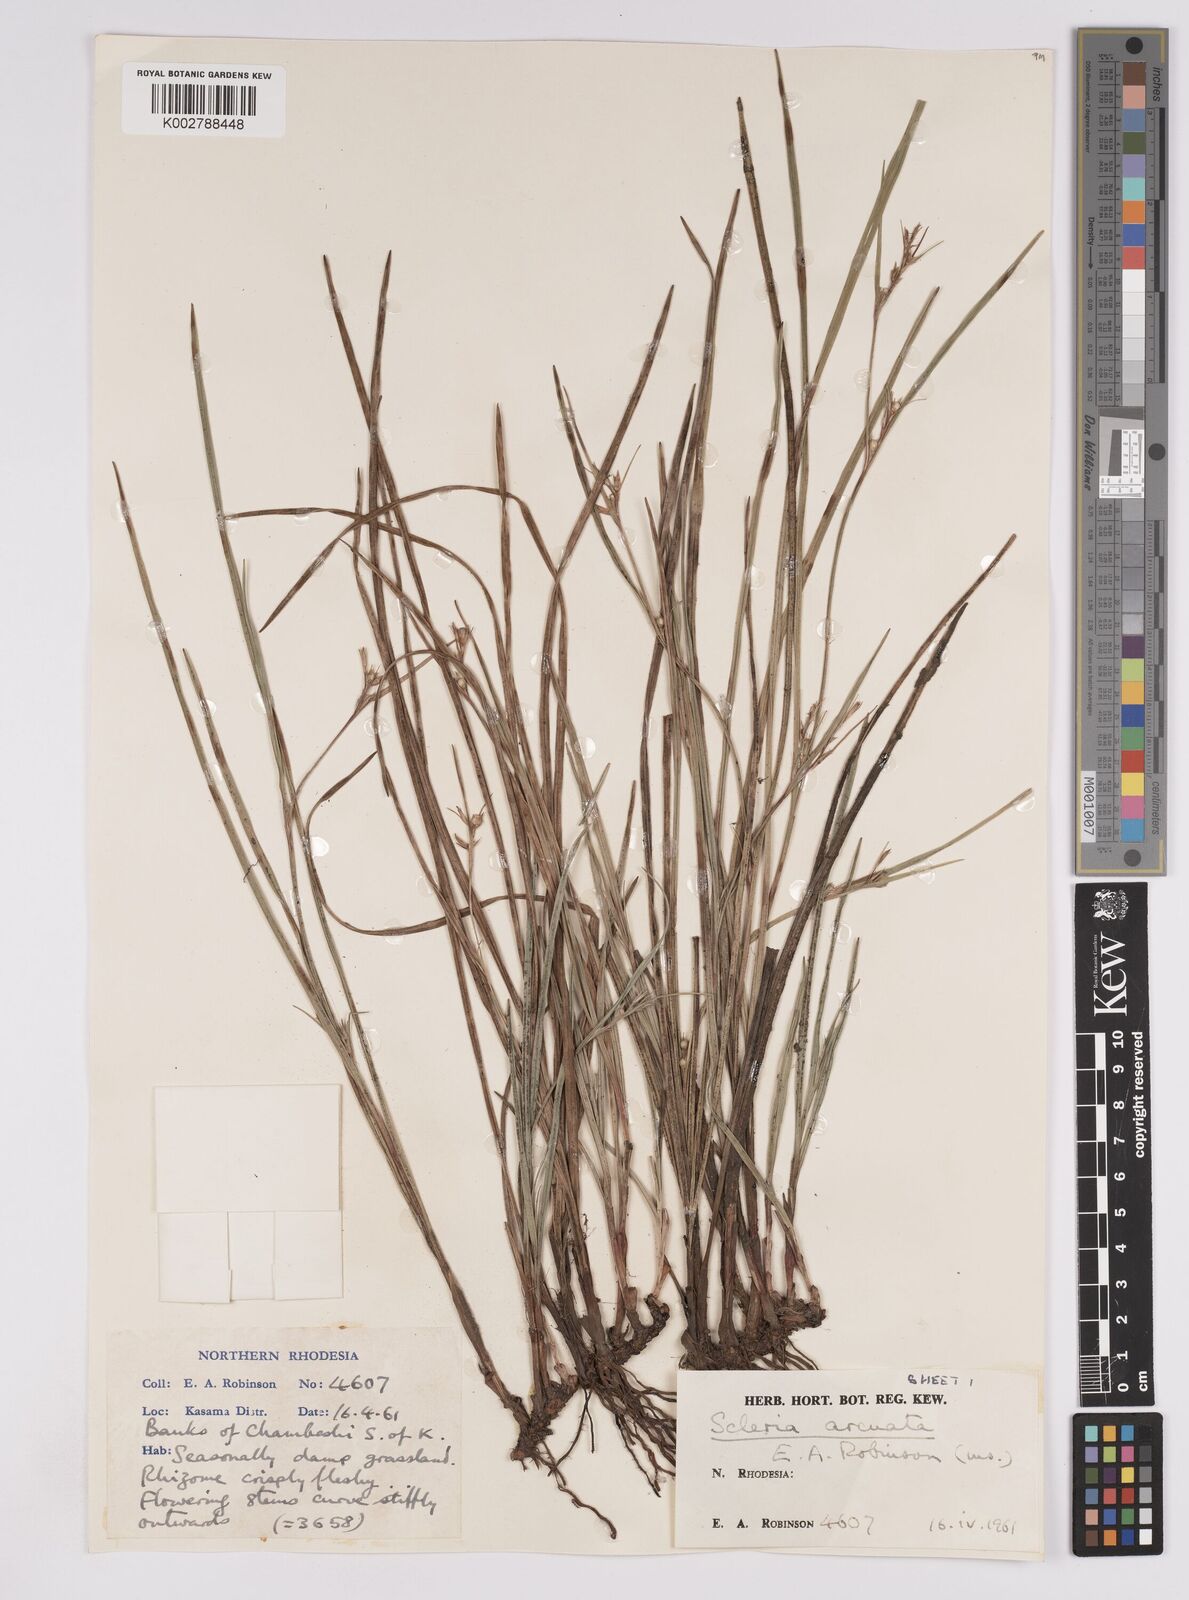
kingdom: Plantae
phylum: Tracheophyta
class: Liliopsida
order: Poales
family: Cyperaceae
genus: Scleria
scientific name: Scleria arcuata
